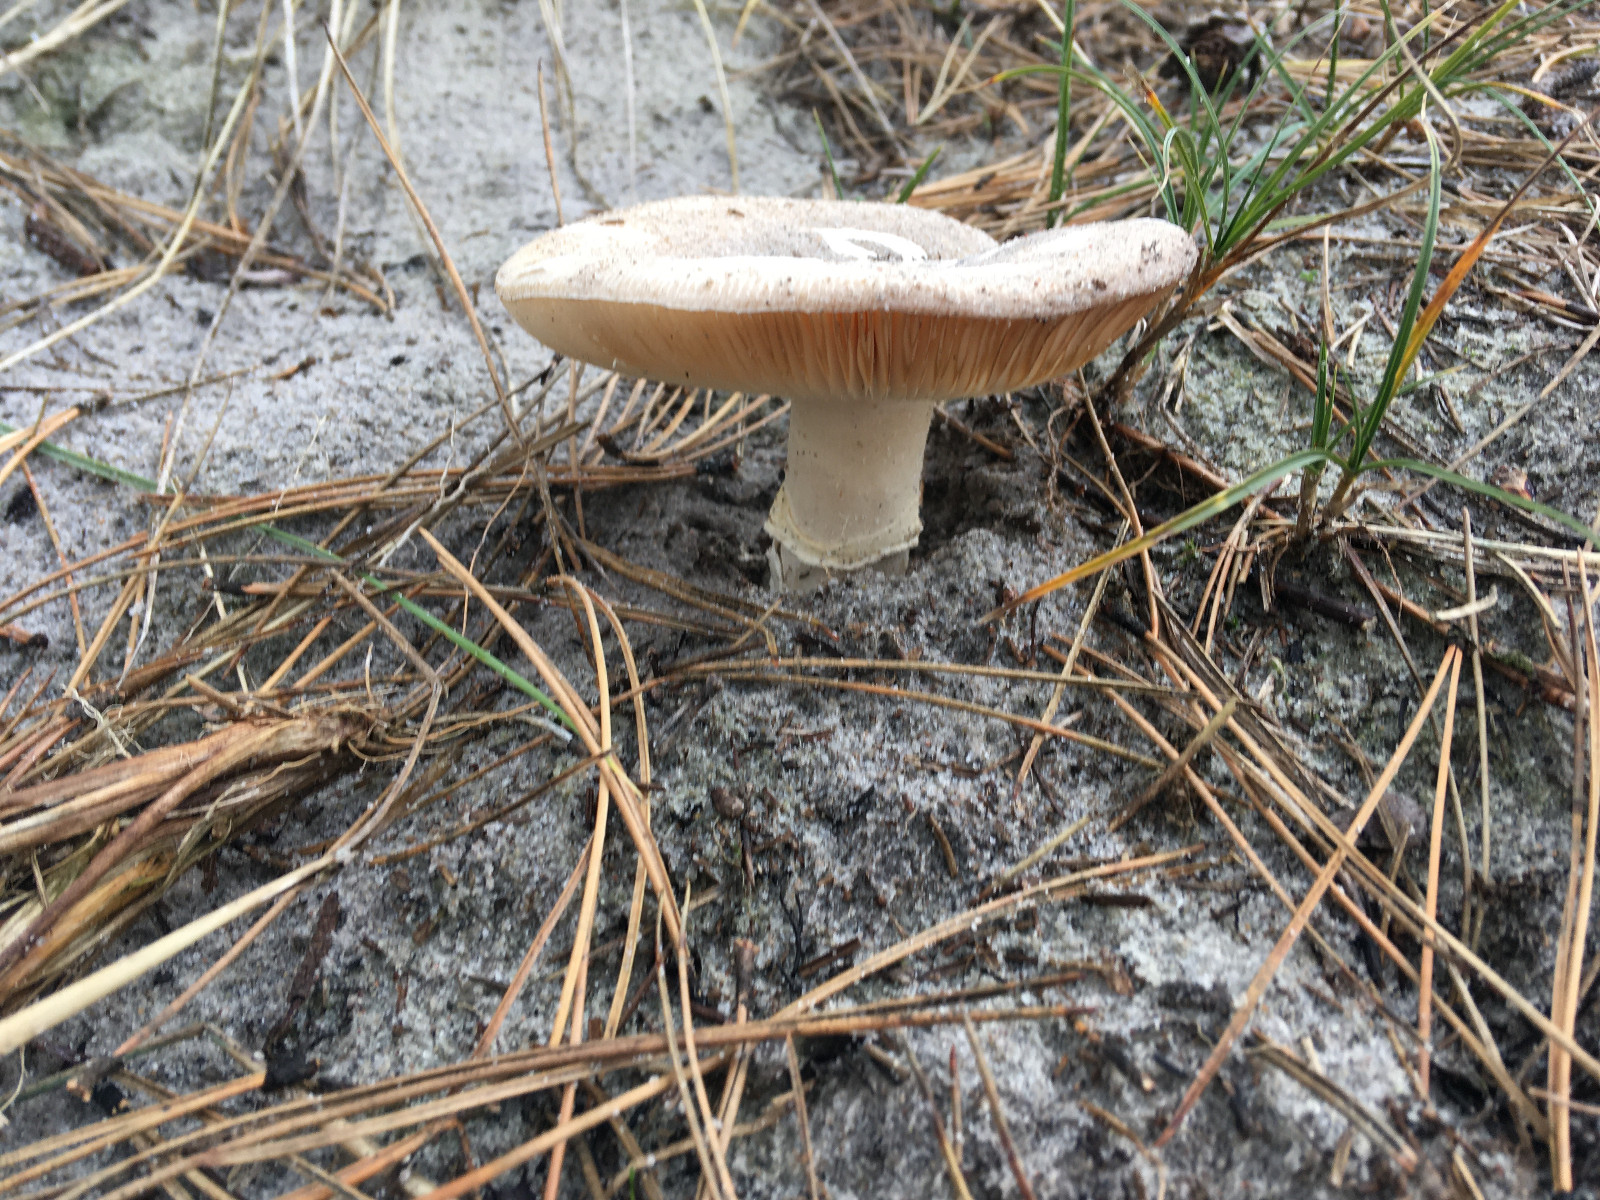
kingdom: Fungi
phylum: Basidiomycota
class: Agaricomycetes
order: Agaricales
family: Amanitaceae
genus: Amanita
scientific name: Amanita gemmata
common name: okkergul fluesvamp
